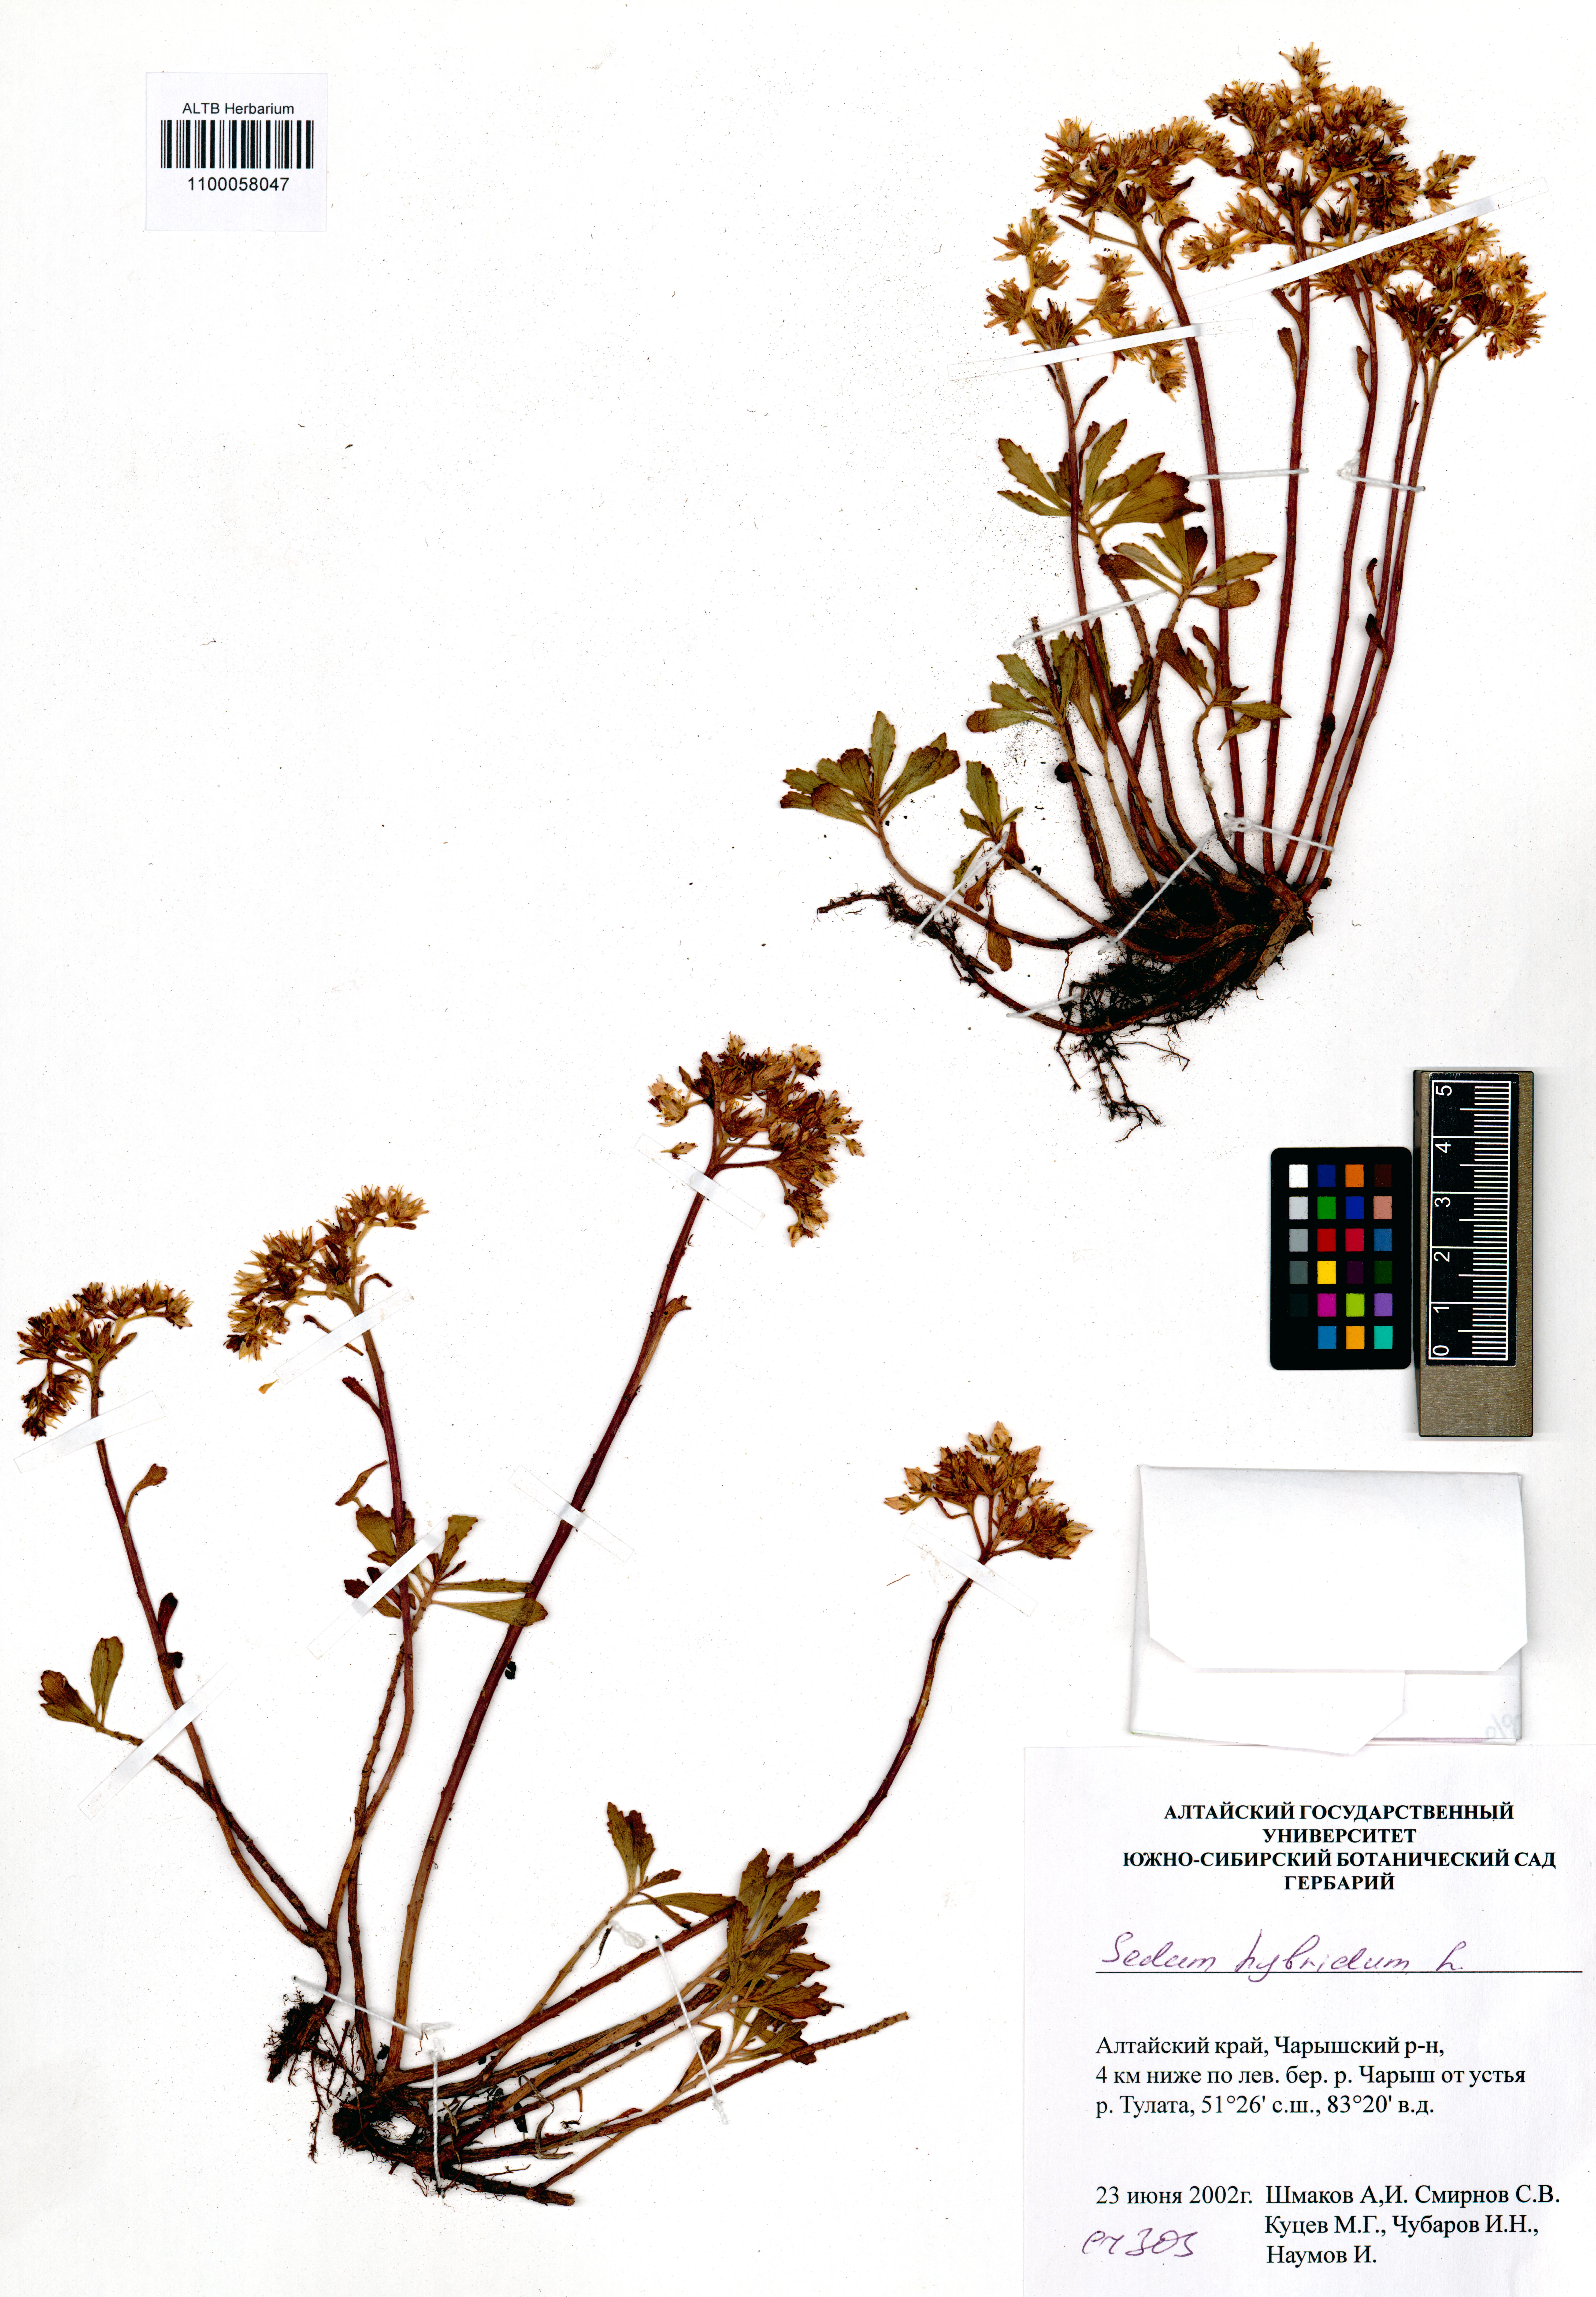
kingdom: Plantae
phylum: Tracheophyta
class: Magnoliopsida
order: Saxifragales
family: Crassulaceae
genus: Phedimus
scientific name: Phedimus hybridus
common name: Hybrid stonecrop
